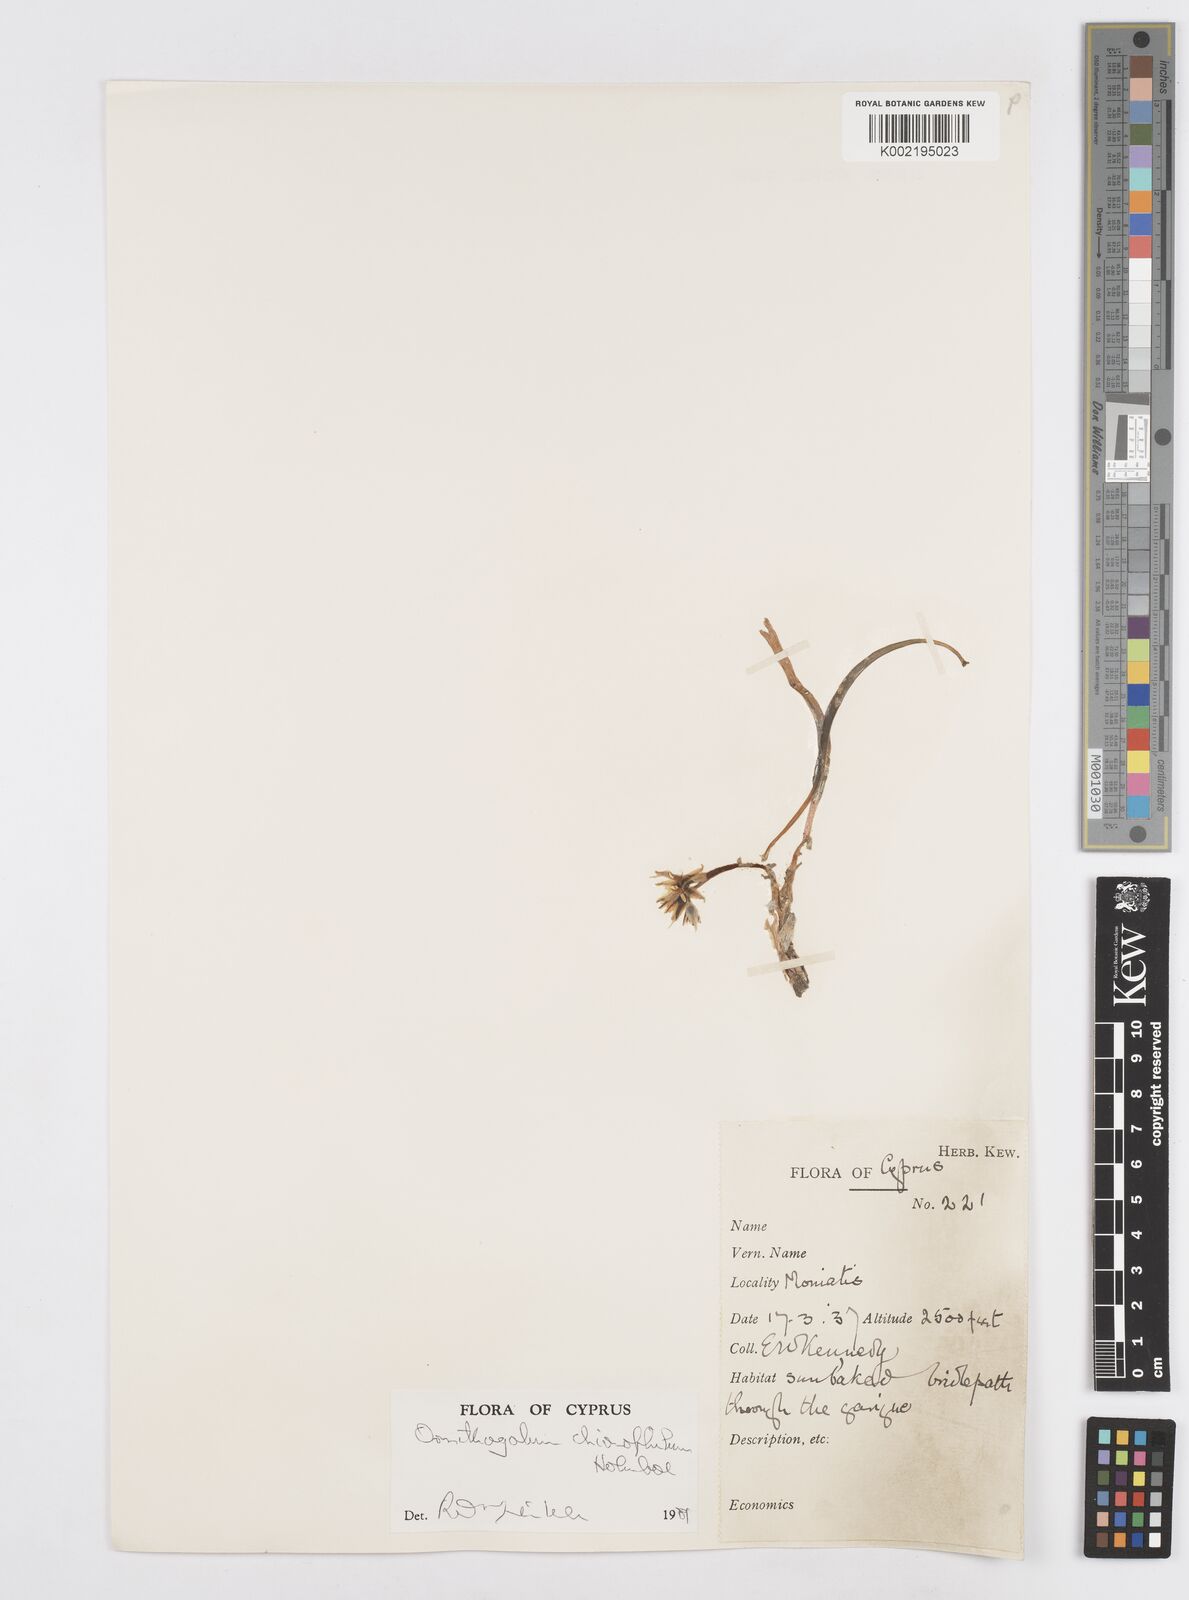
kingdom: Plantae
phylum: Tracheophyta
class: Liliopsida
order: Asparagales
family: Asparagaceae
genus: Ornithogalum
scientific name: Ornithogalum chionophilum
